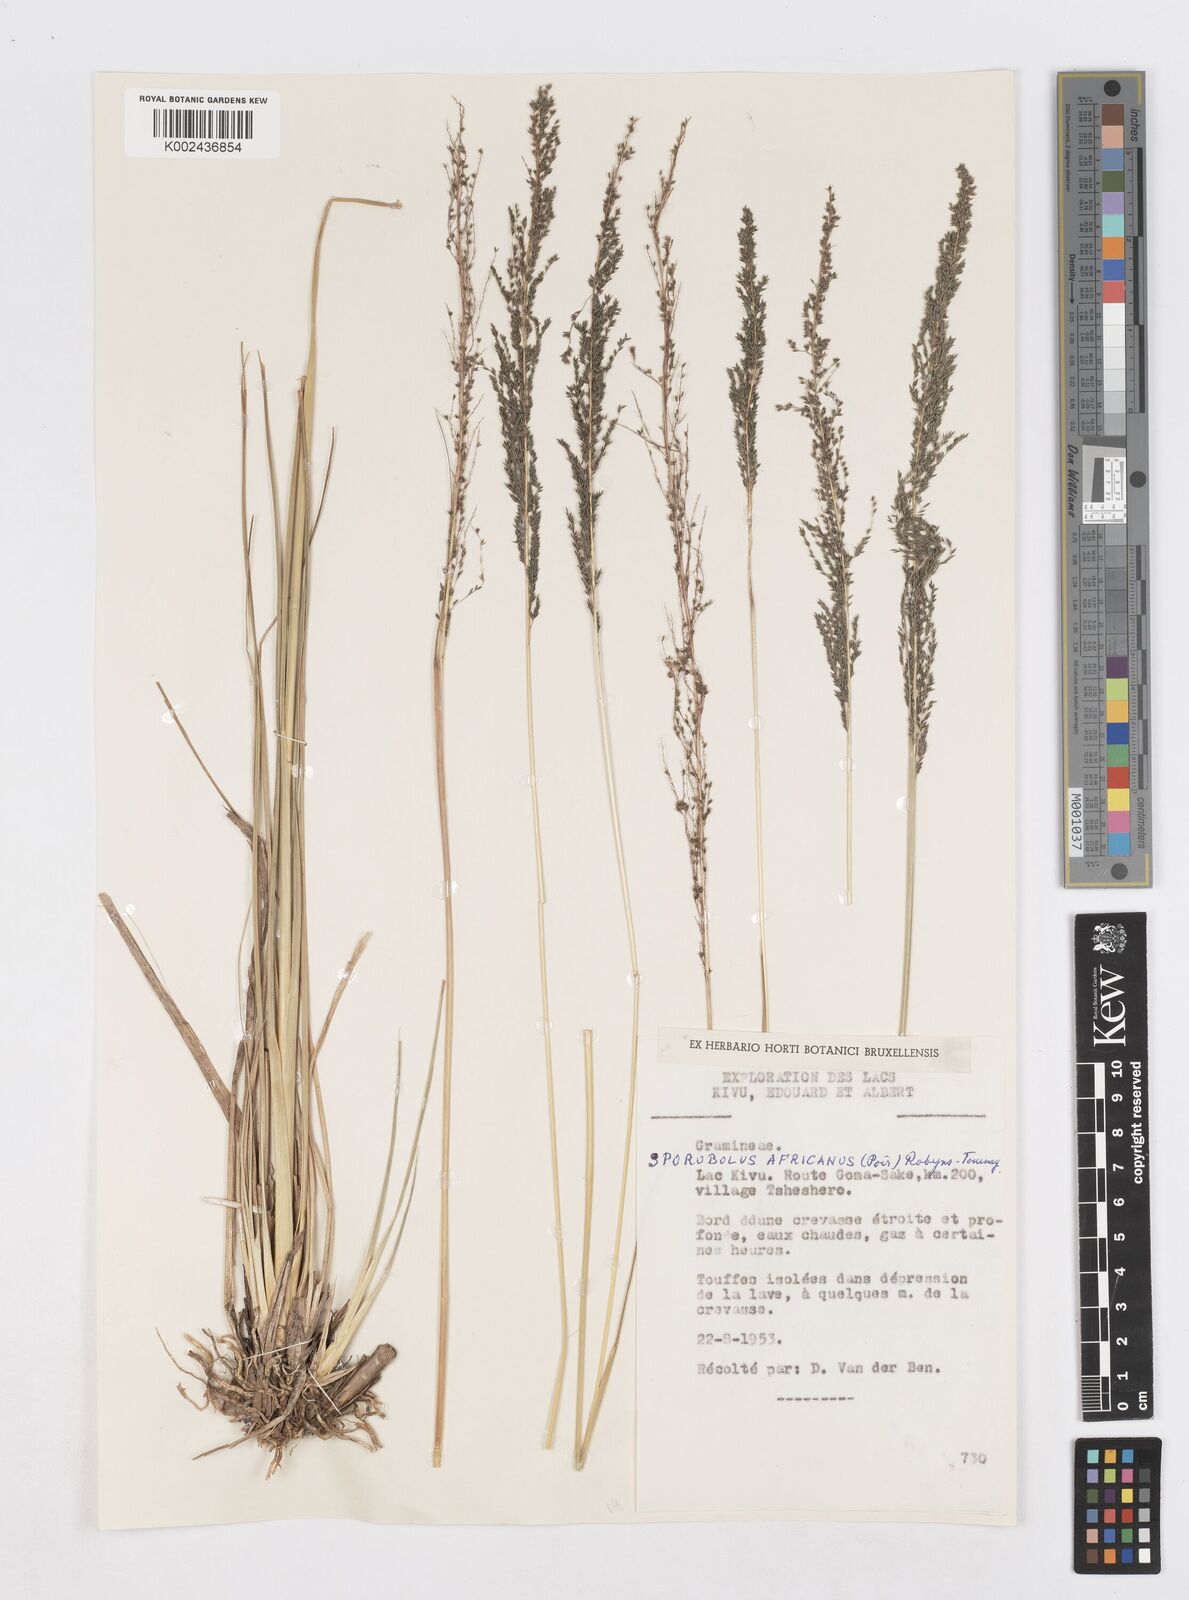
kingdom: Plantae
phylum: Tracheophyta
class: Liliopsida
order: Poales
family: Poaceae
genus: Sporobolus
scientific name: Sporobolus natalensis
